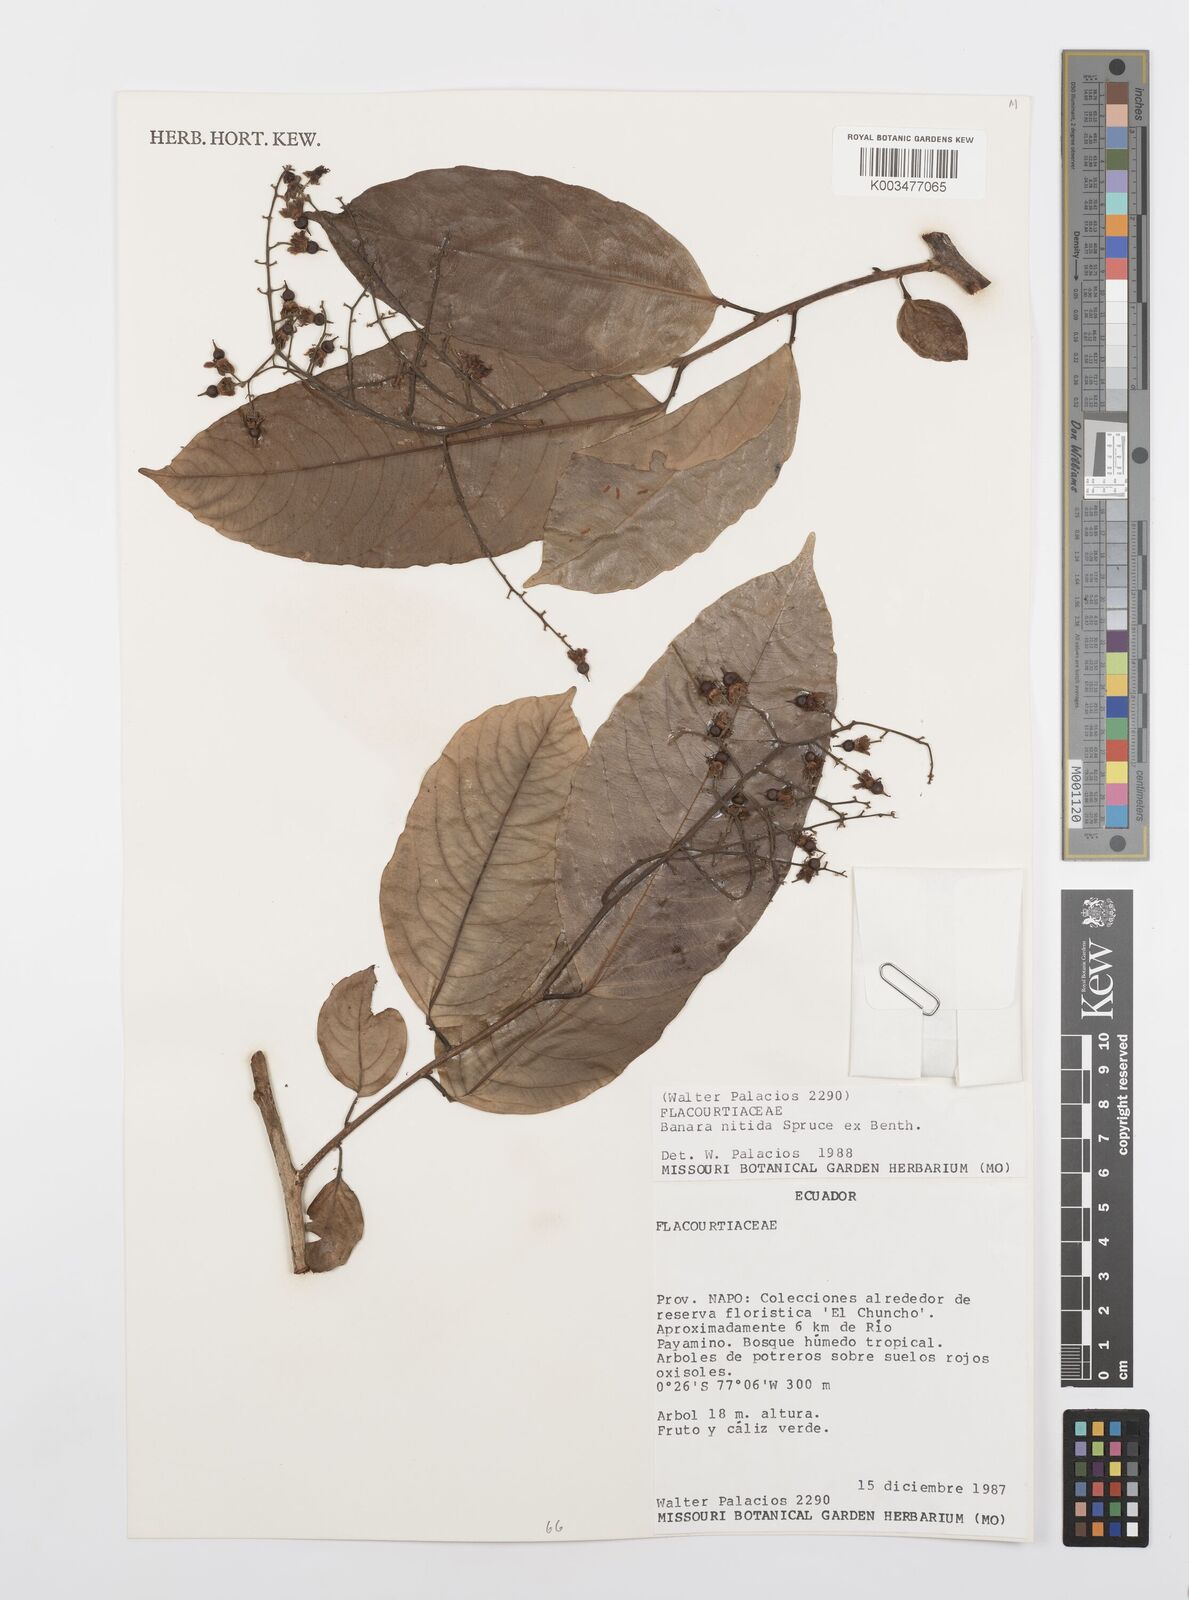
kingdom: Plantae
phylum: Tracheophyta
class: Magnoliopsida
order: Malpighiales
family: Salicaceae
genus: Banara
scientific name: Banara nitida
